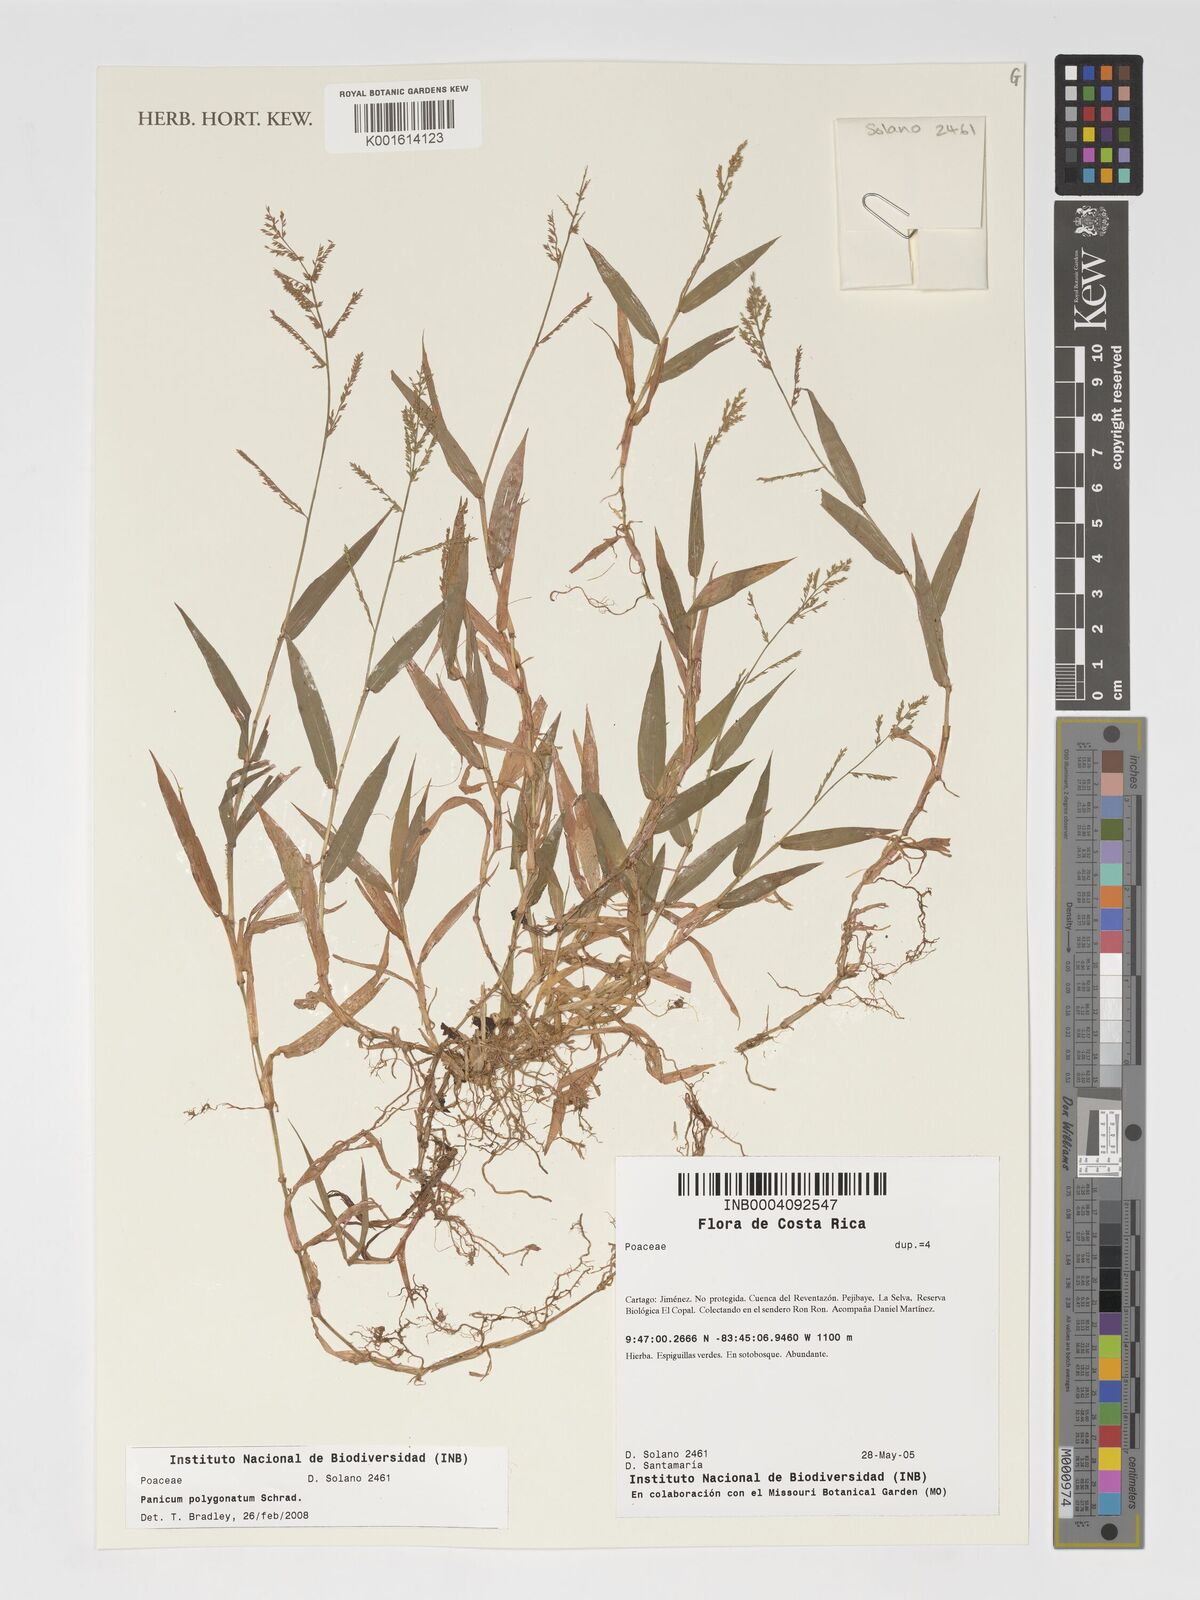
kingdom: Plantae
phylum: Tracheophyta
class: Liliopsida
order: Poales
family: Poaceae
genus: Rugoloa
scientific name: Rugoloa polygonata
